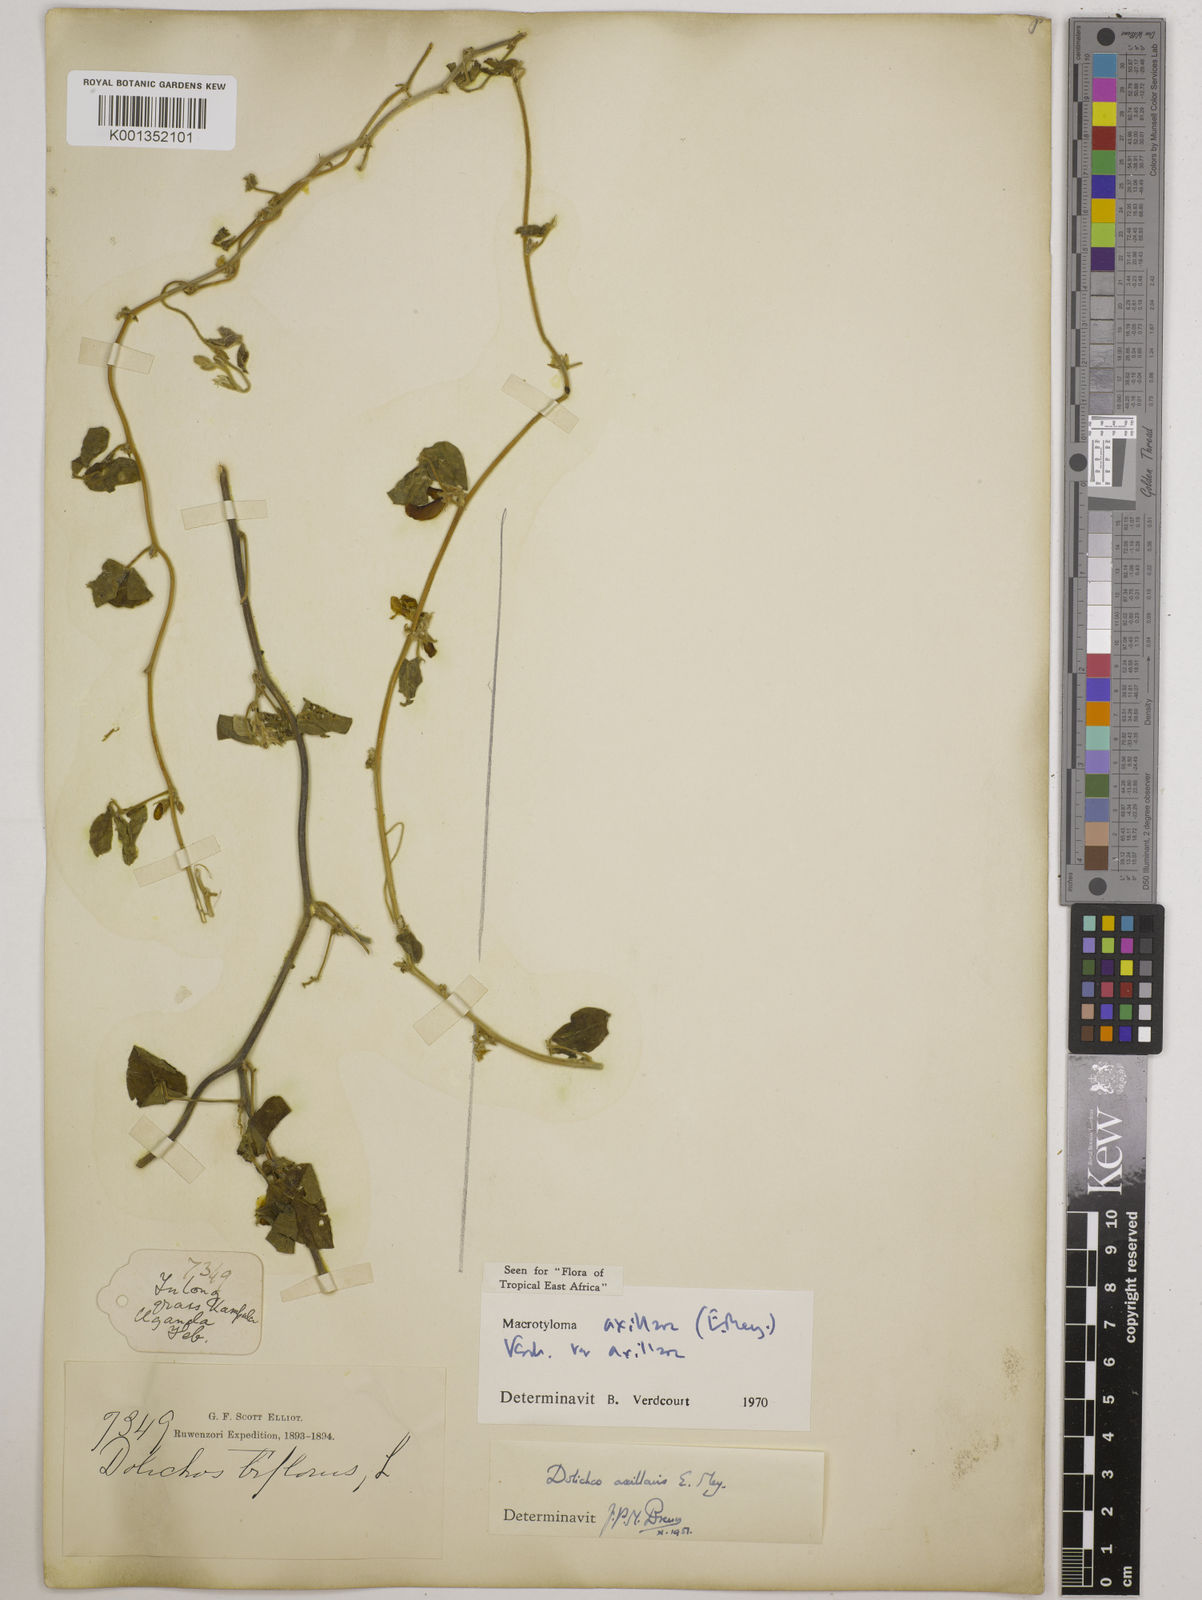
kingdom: Plantae
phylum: Tracheophyta
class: Magnoliopsida
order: Fabales
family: Fabaceae
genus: Macrotyloma
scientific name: Macrotyloma axillare
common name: Perennial horsegram
